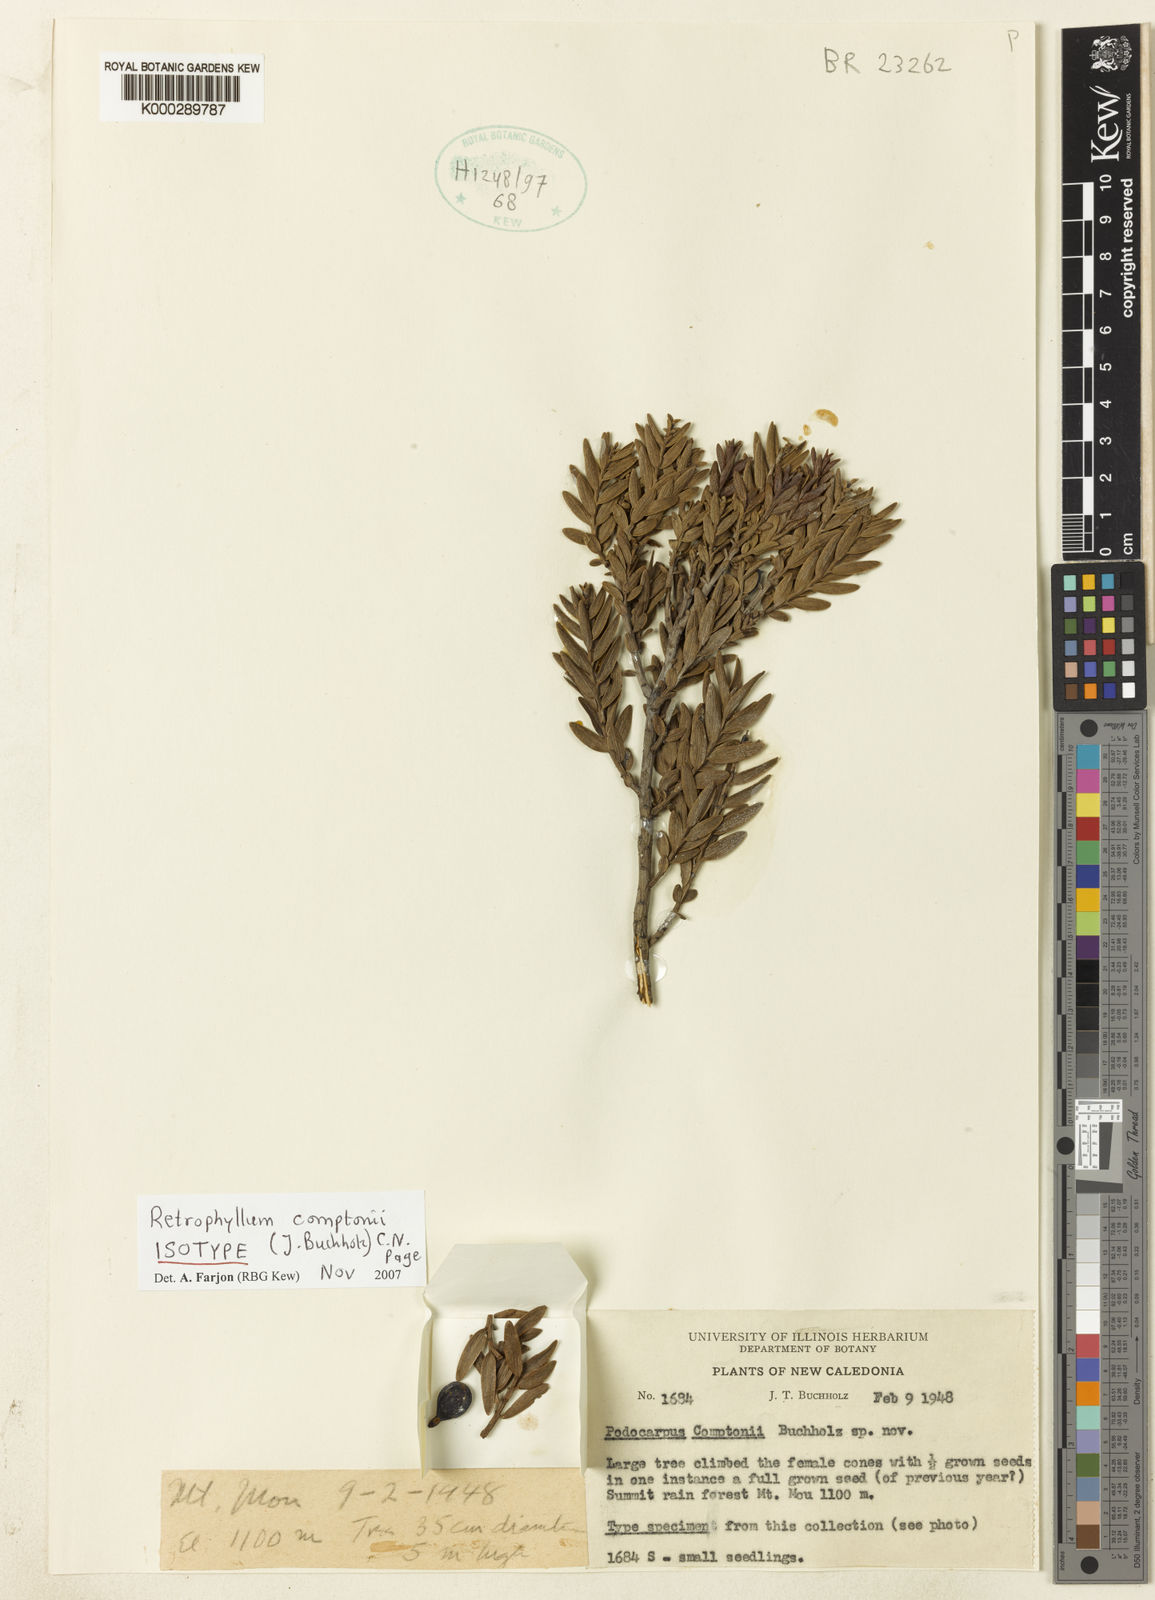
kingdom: Plantae
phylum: Tracheophyta
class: Pinopsida
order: Pinales
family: Podocarpaceae
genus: Retrophyllum
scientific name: Retrophyllum comptonii
